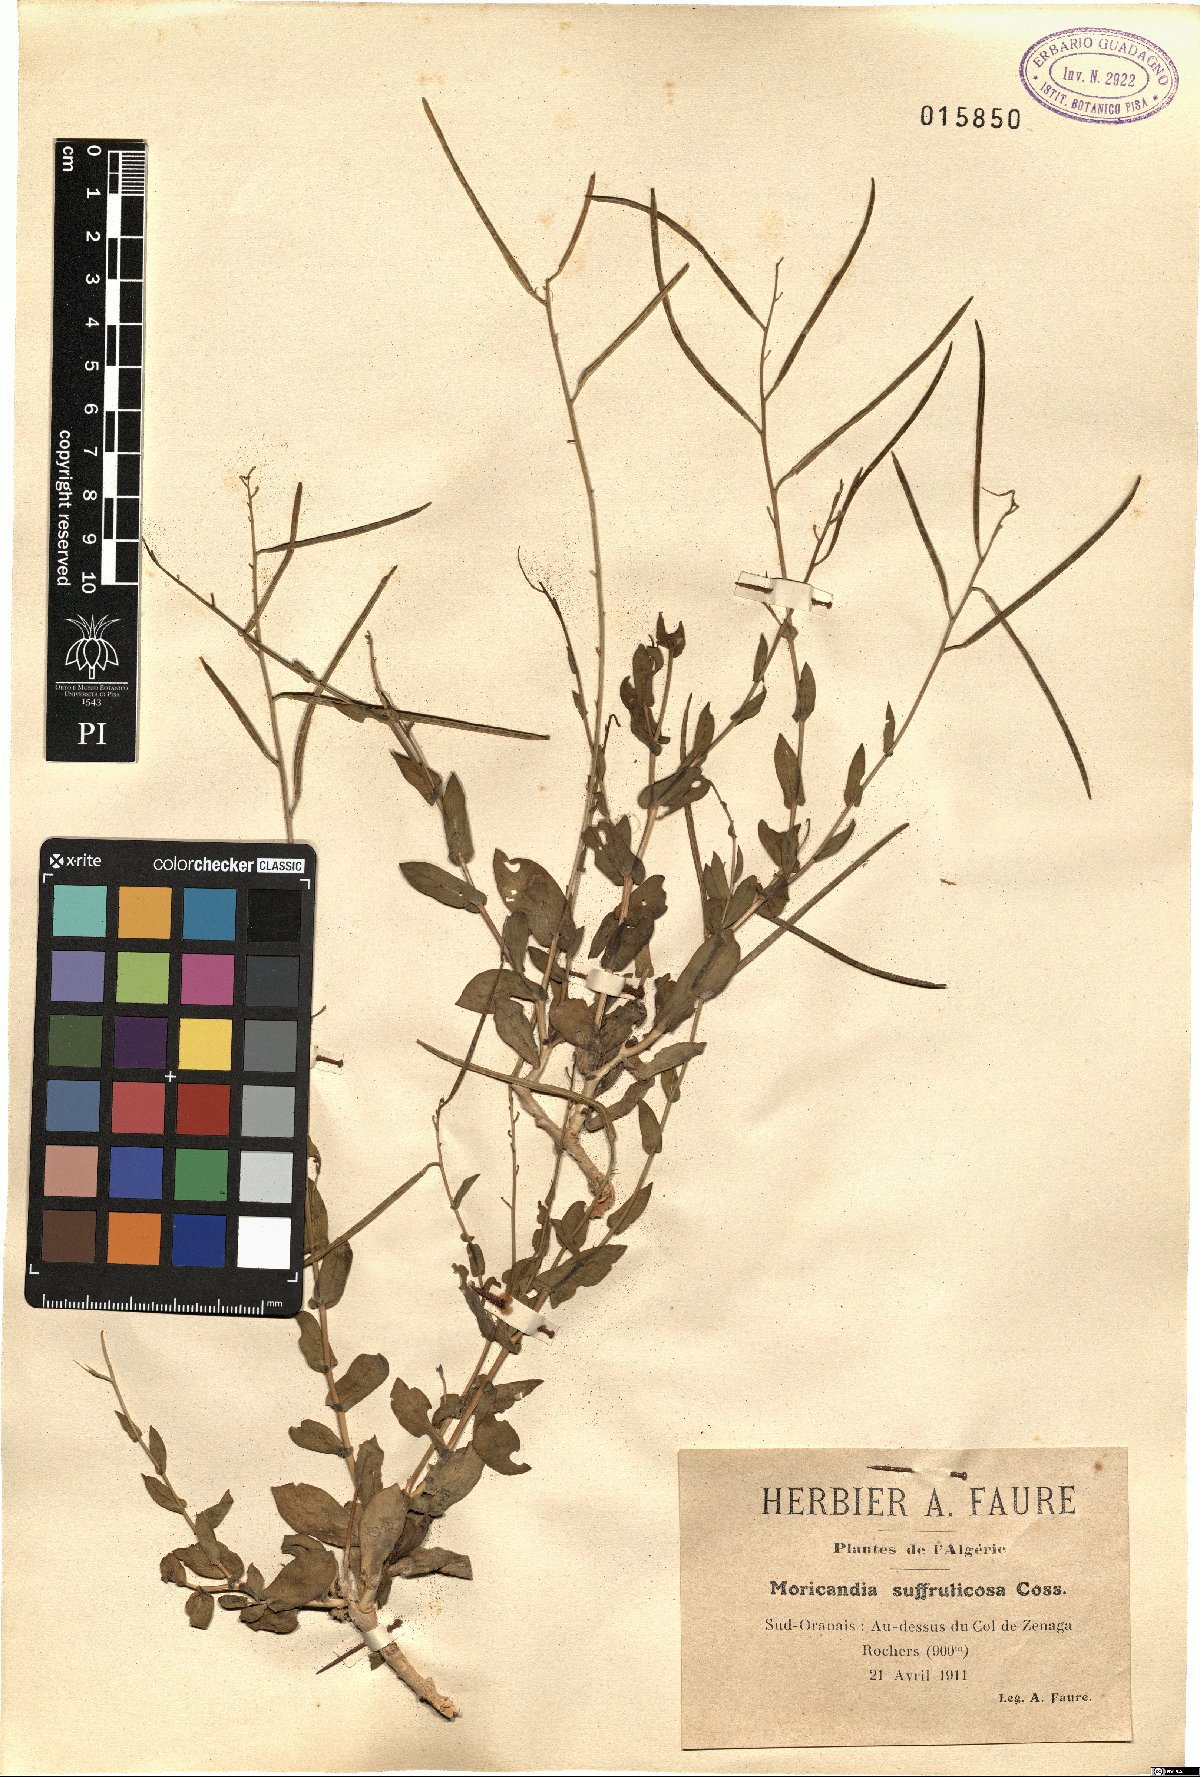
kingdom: Plantae
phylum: Tracheophyta
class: Magnoliopsida
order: Brassicales
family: Brassicaceae
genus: Moricandia
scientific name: Moricandia suffruticosa
